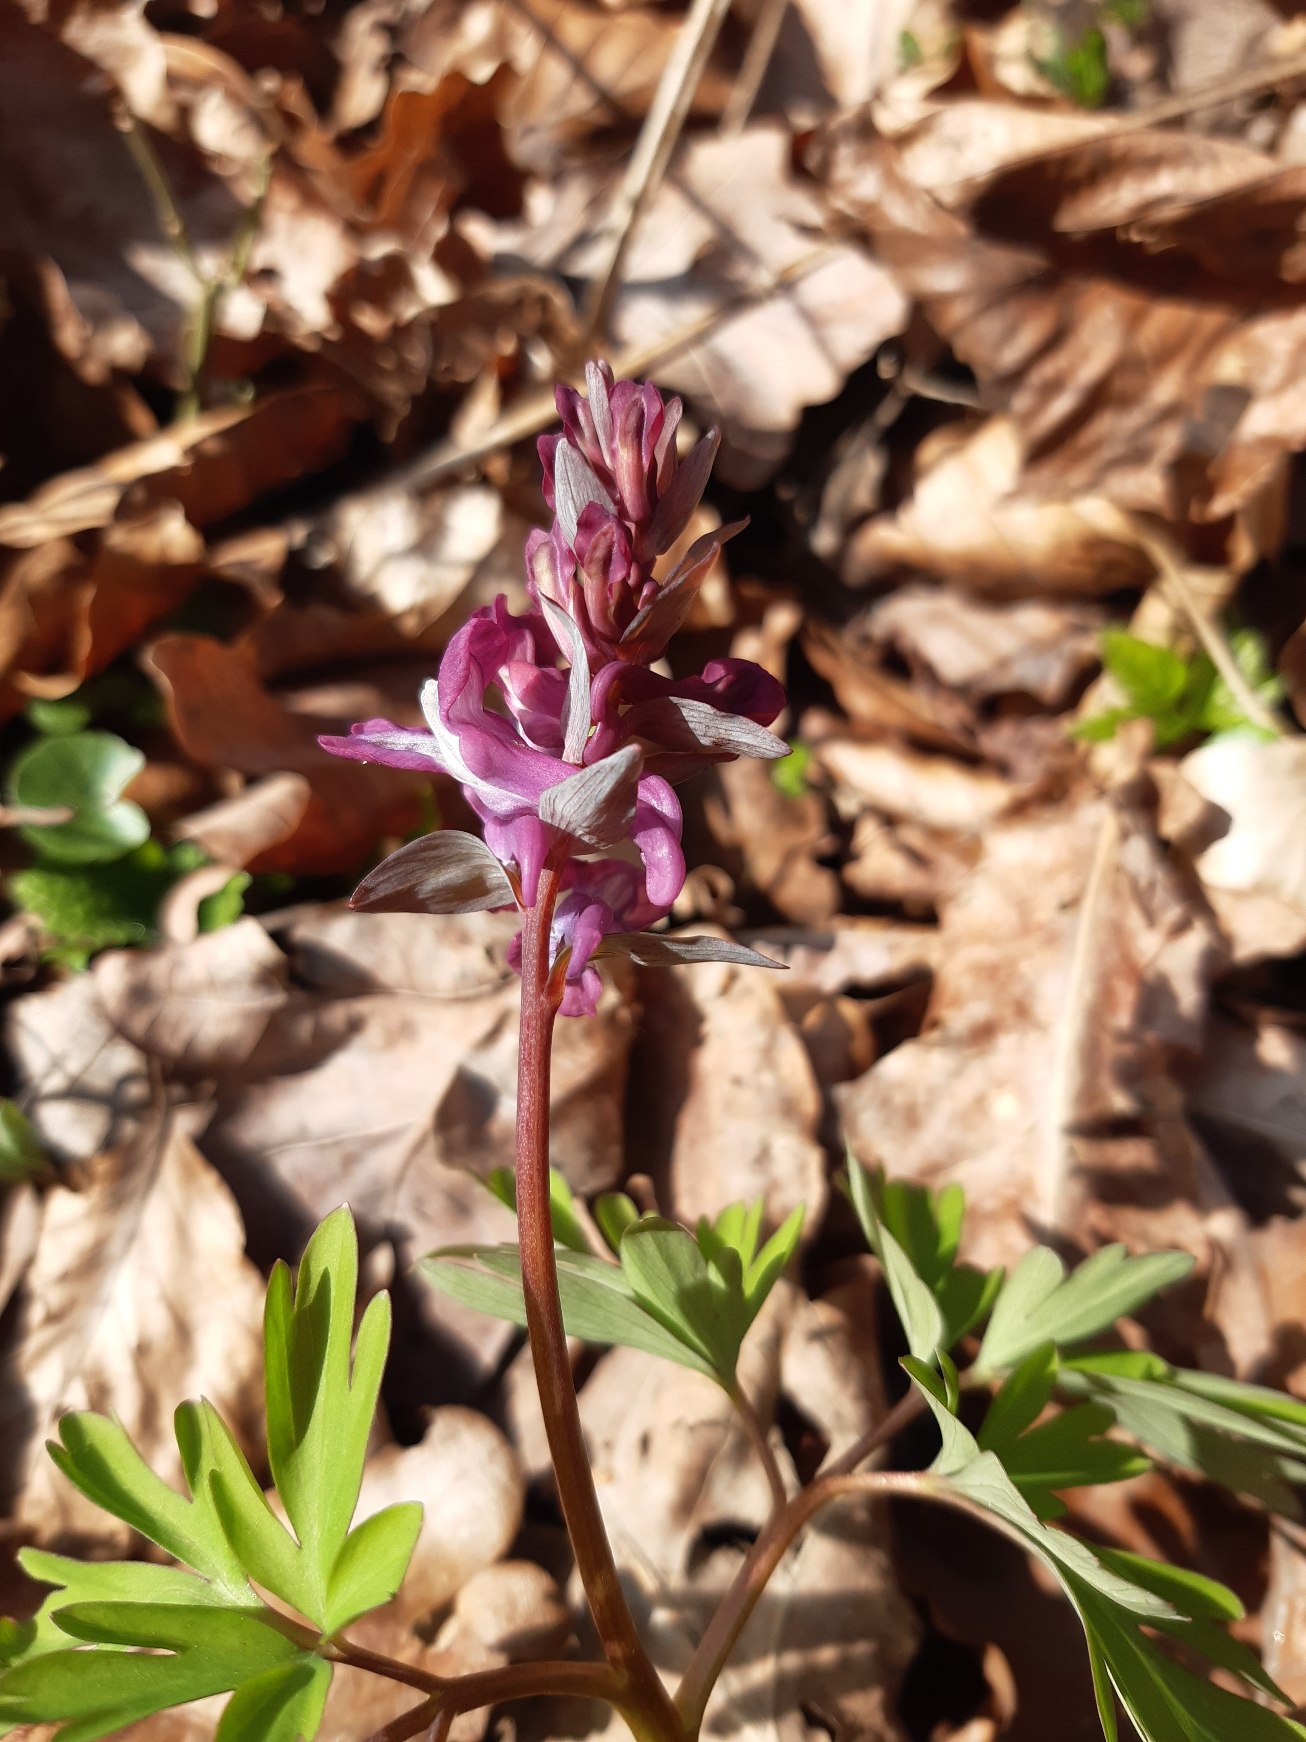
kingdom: Plantae
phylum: Tracheophyta
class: Magnoliopsida
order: Ranunculales
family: Papaveraceae
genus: Corydalis
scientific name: Corydalis cava
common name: Hulrodet lærkespore
